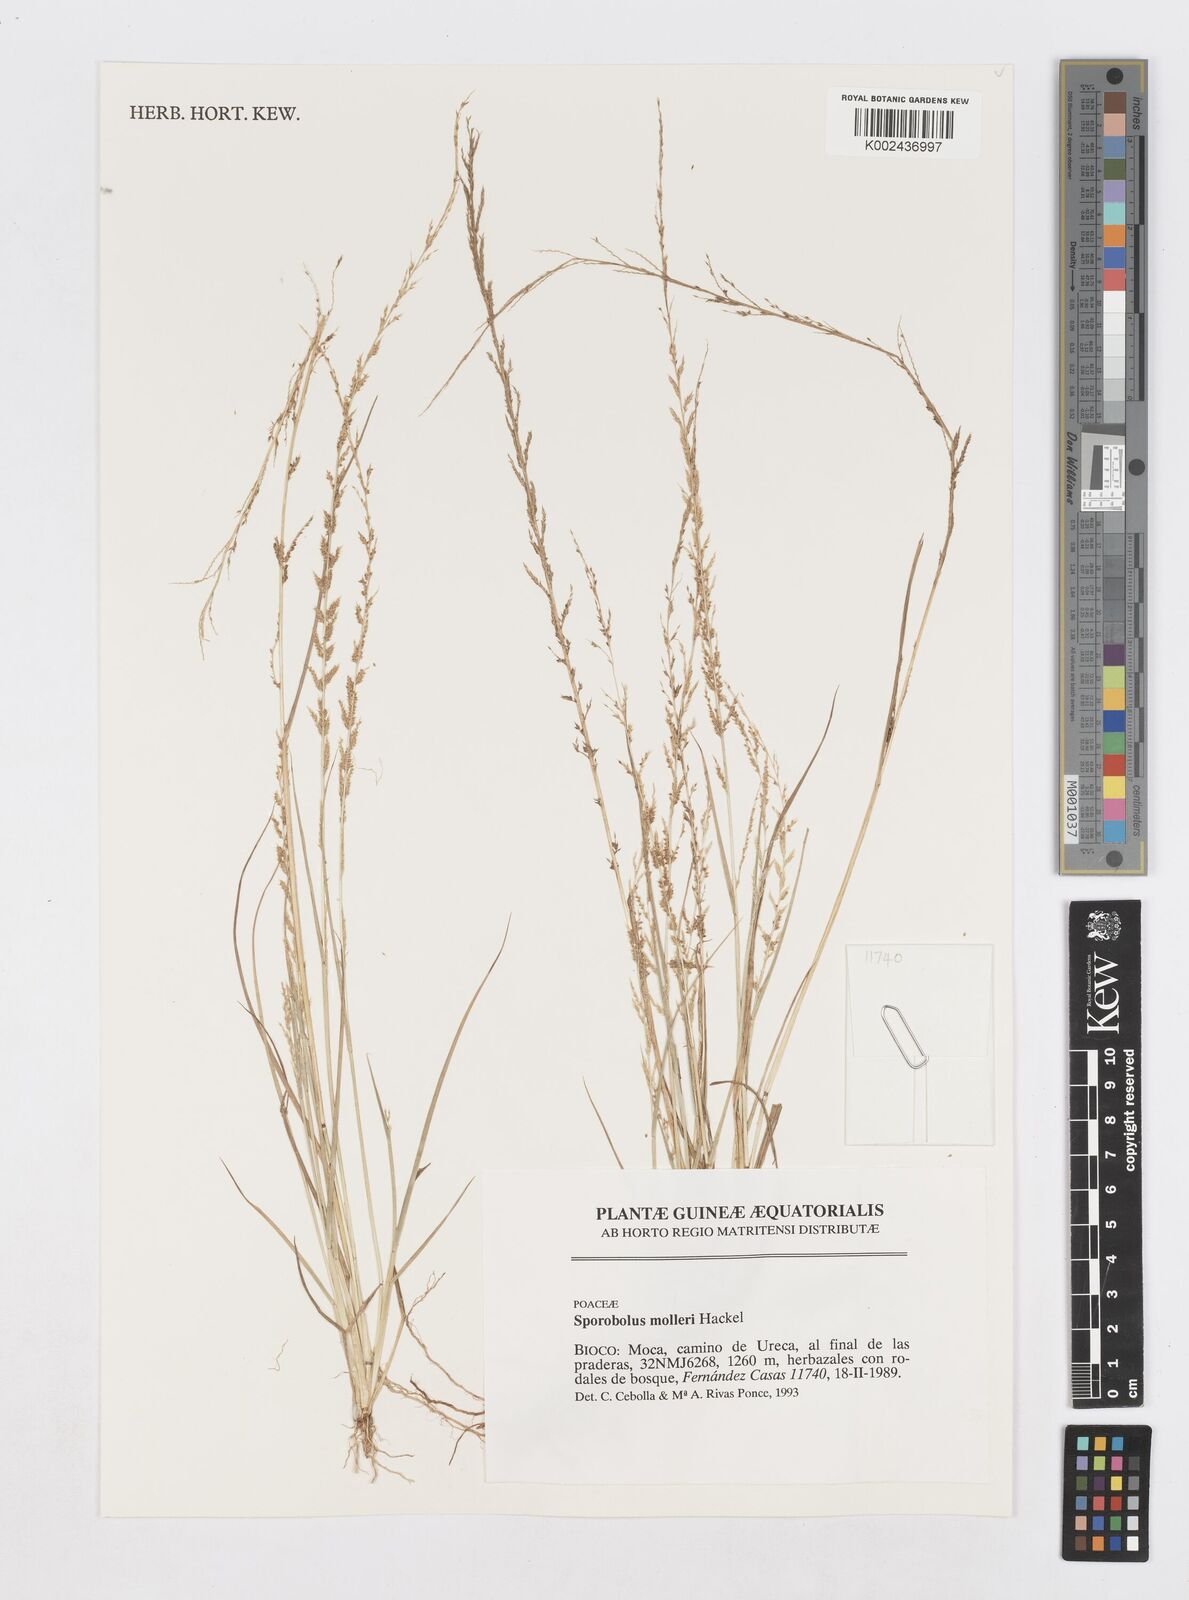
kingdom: Plantae
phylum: Tracheophyta
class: Liliopsida
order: Poales
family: Poaceae
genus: Sporobolus
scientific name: Sporobolus molleri
